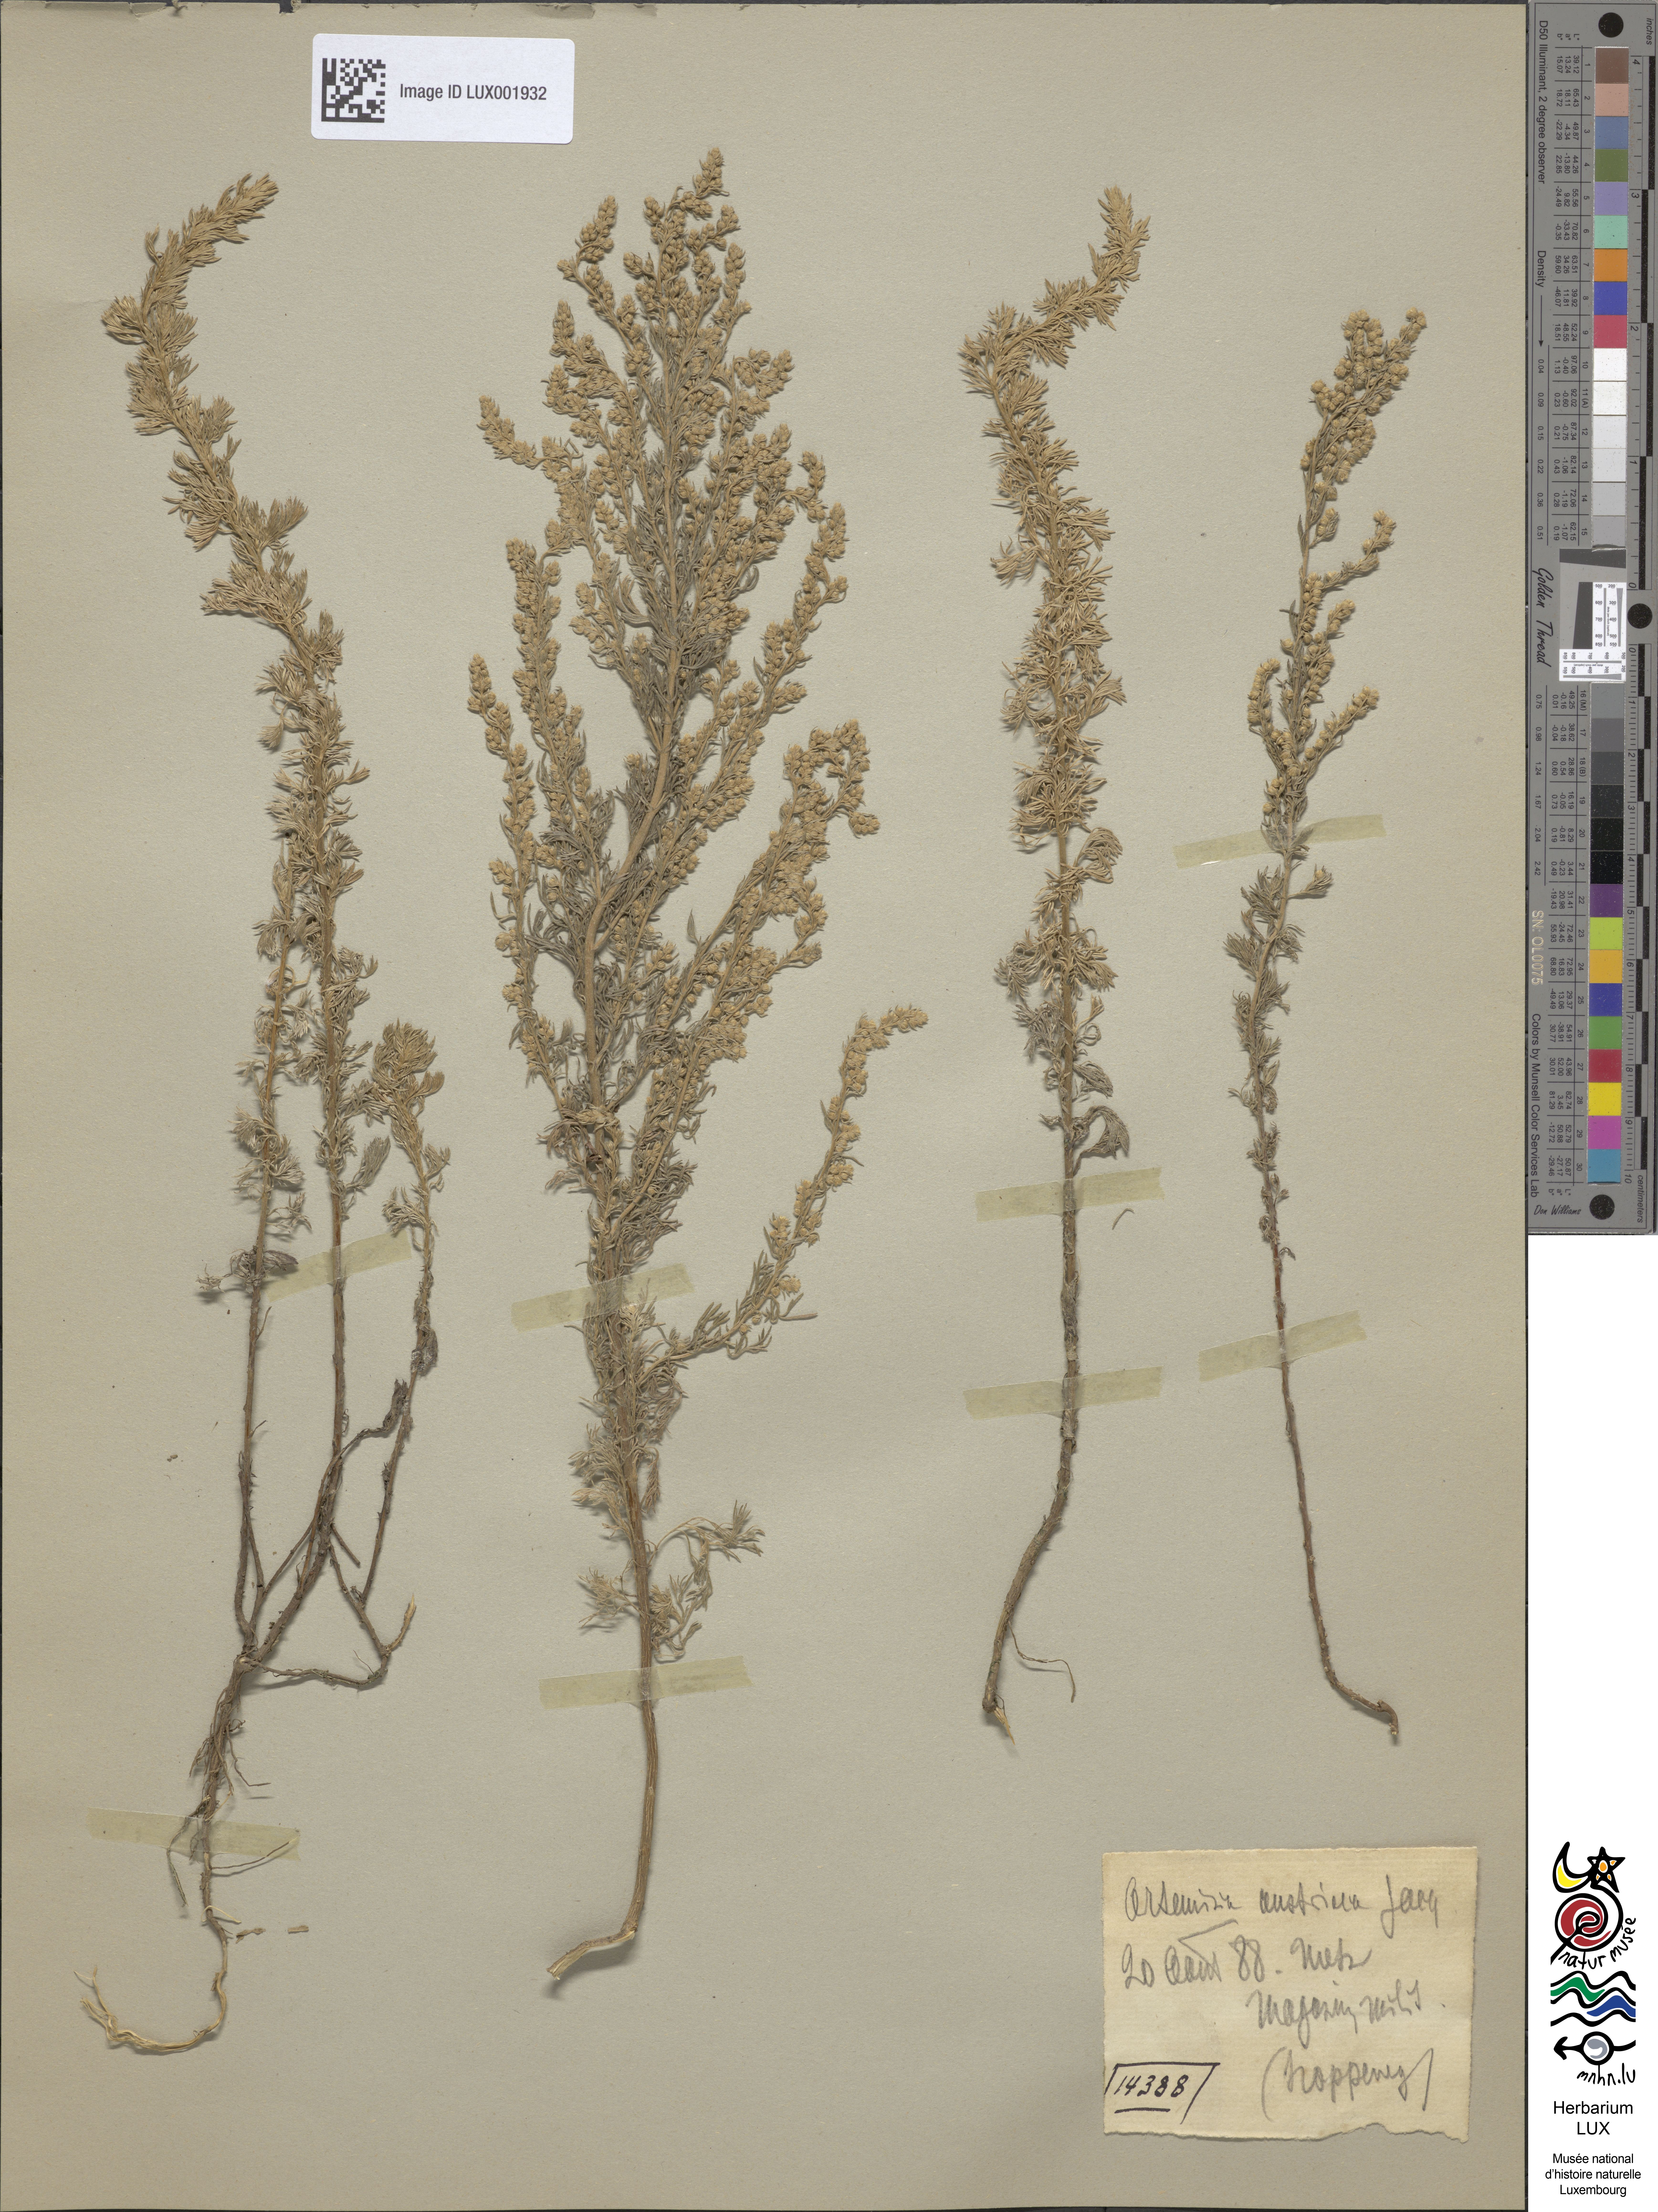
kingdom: Plantae
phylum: Tracheophyta
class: Magnoliopsida
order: Asterales
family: Asteraceae
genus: Artemisia
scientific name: Artemisia austriaca
